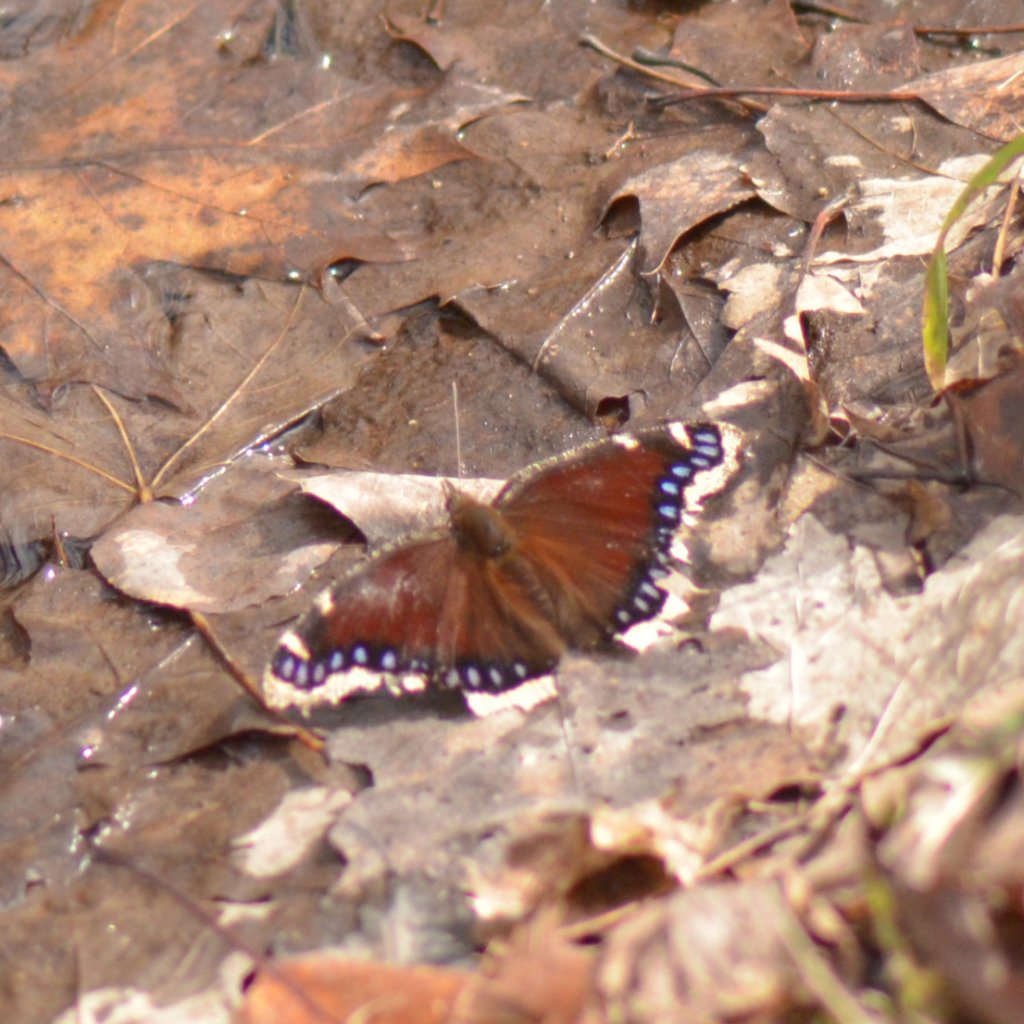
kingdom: Animalia
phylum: Arthropoda
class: Insecta
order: Lepidoptera
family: Nymphalidae
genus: Nymphalis
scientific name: Nymphalis antiopa
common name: Mourning Cloak
